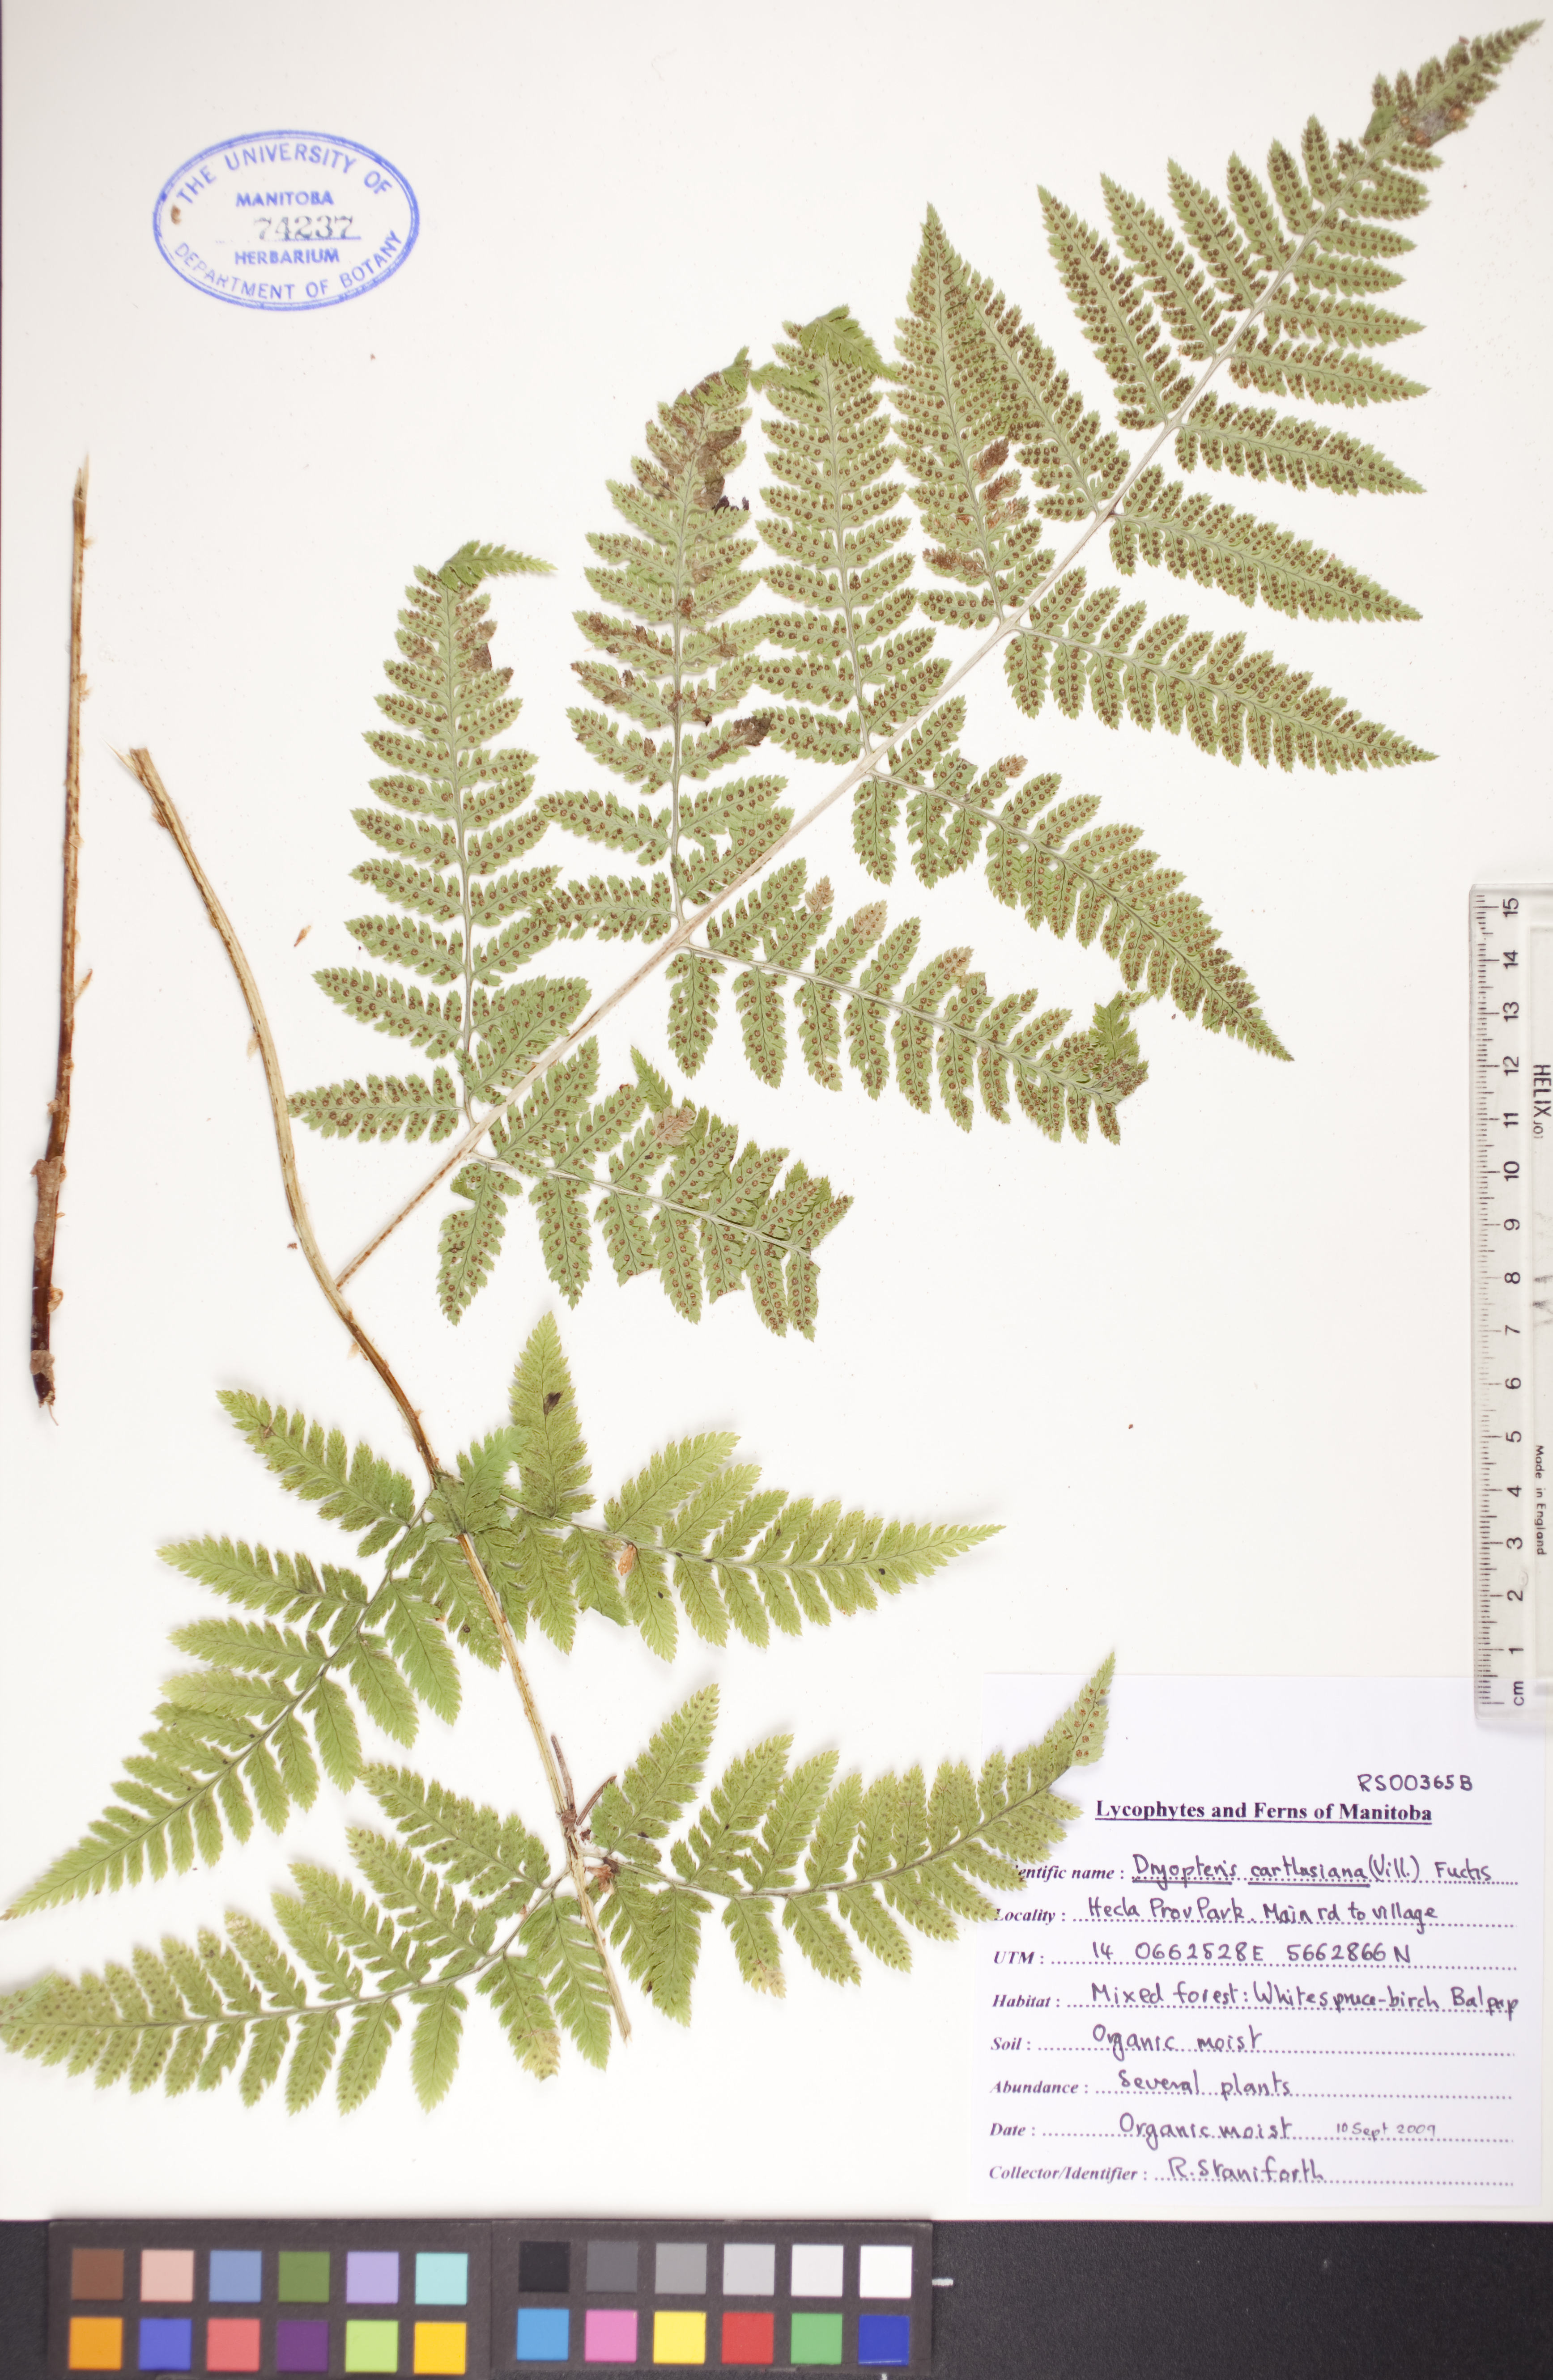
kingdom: Plantae
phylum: Tracheophyta
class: Polypodiopsida
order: Polypodiales
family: Dryopteridaceae
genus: Dryopteris
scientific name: Dryopteris carthusiana
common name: Narrow buckler-fern
